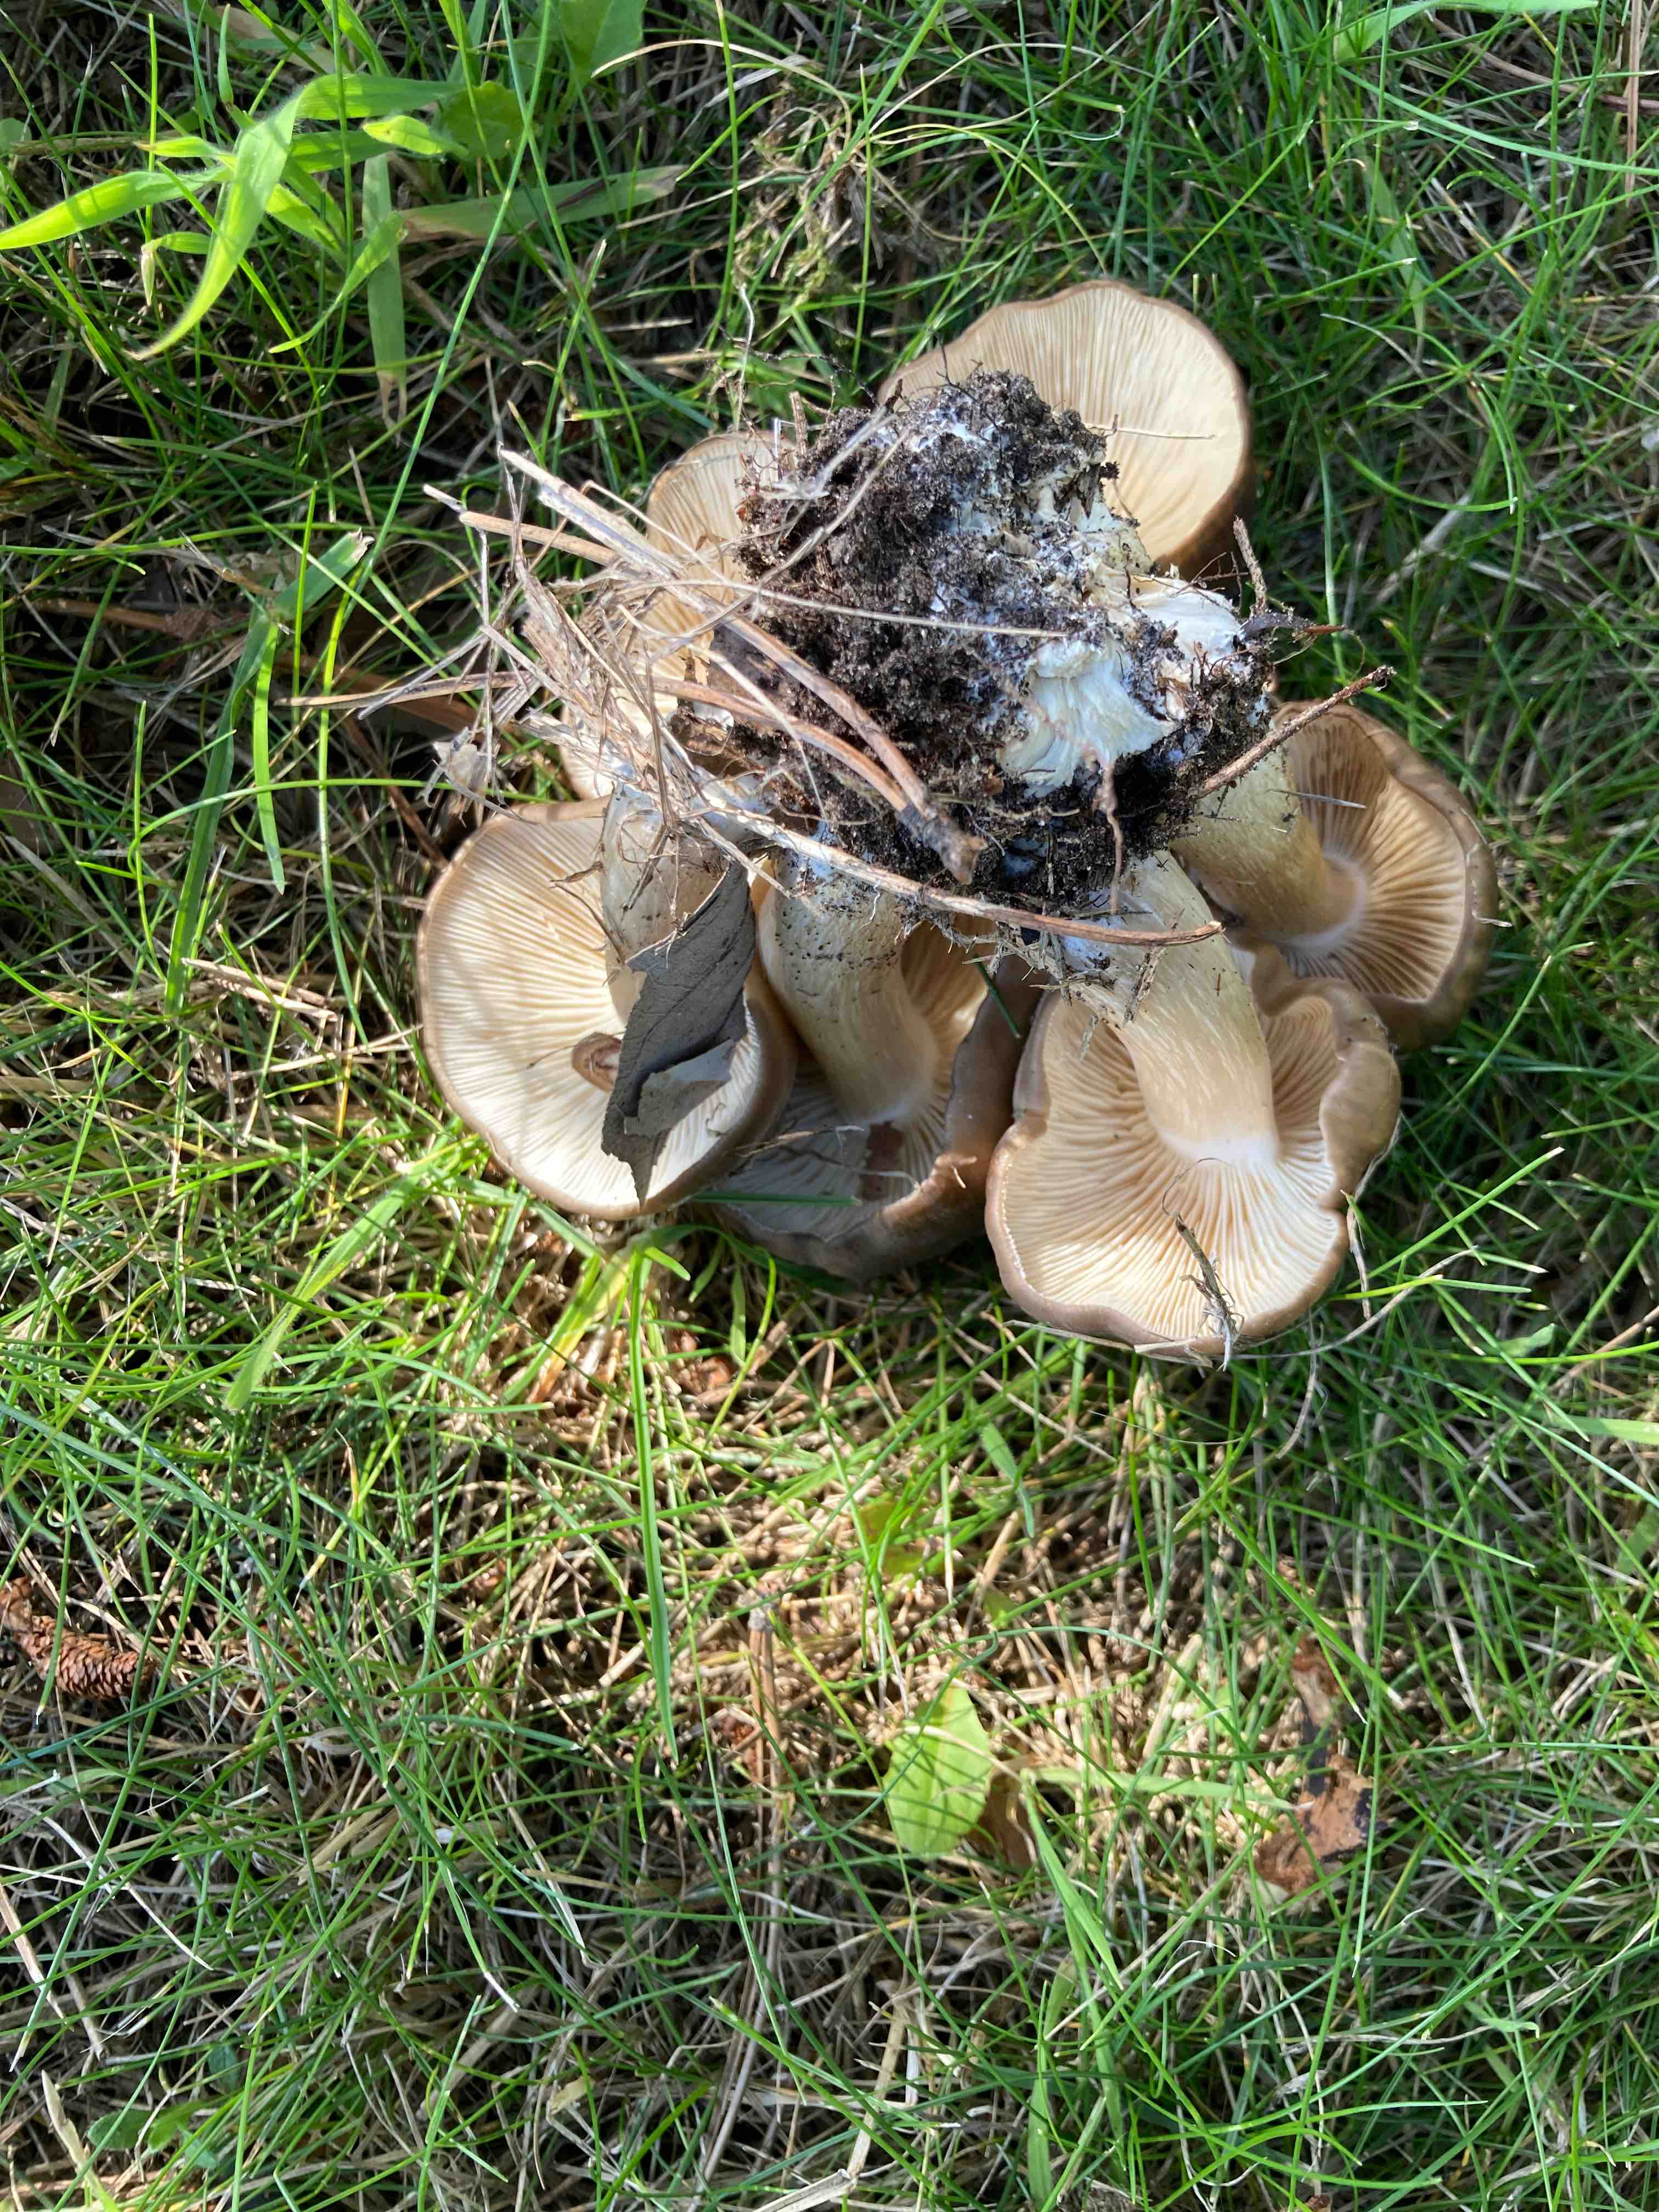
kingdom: Fungi
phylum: Basidiomycota
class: Agaricomycetes
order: Agaricales
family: Lyophyllaceae
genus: Lyophyllum
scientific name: Lyophyllum
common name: gråblad
